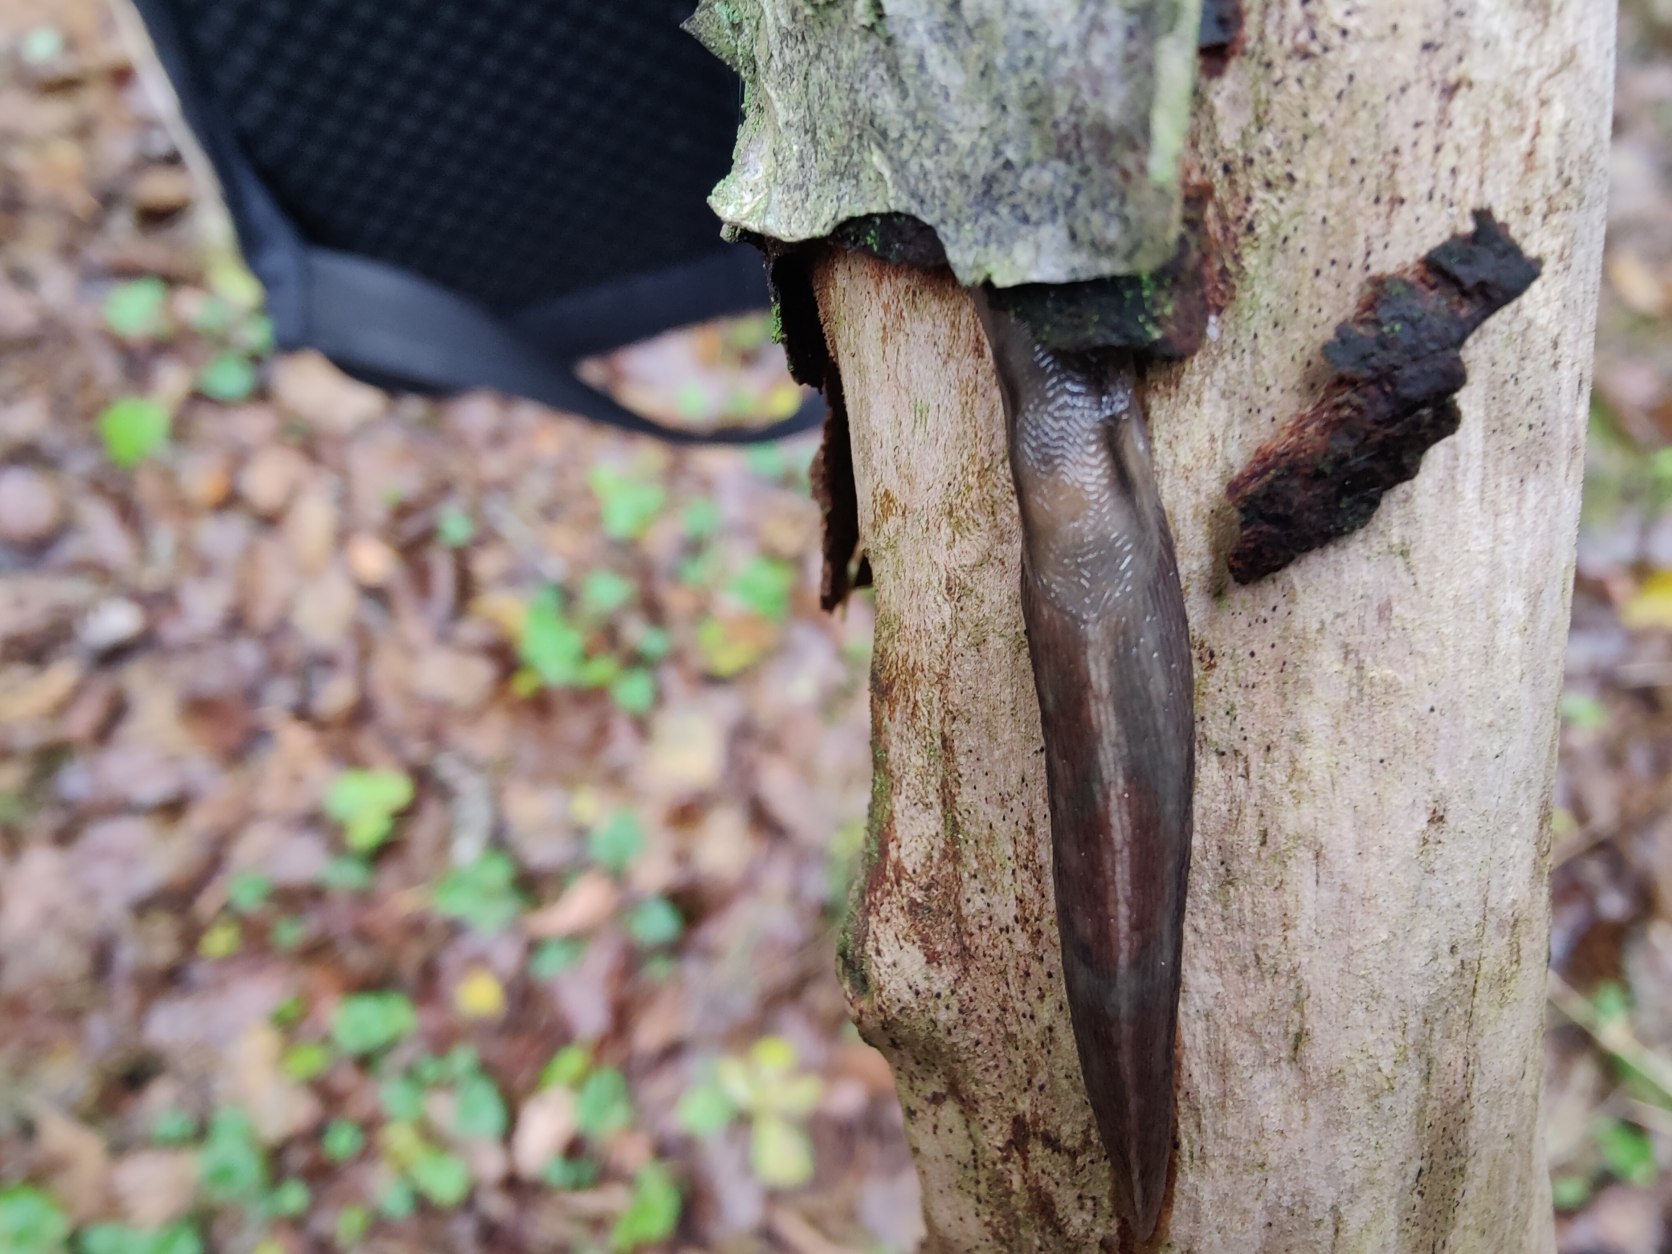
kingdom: Animalia
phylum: Mollusca
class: Gastropoda
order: Stylommatophora
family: Limacidae
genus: Lehmannia
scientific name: Lehmannia marginata
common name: Bøgesnegl
